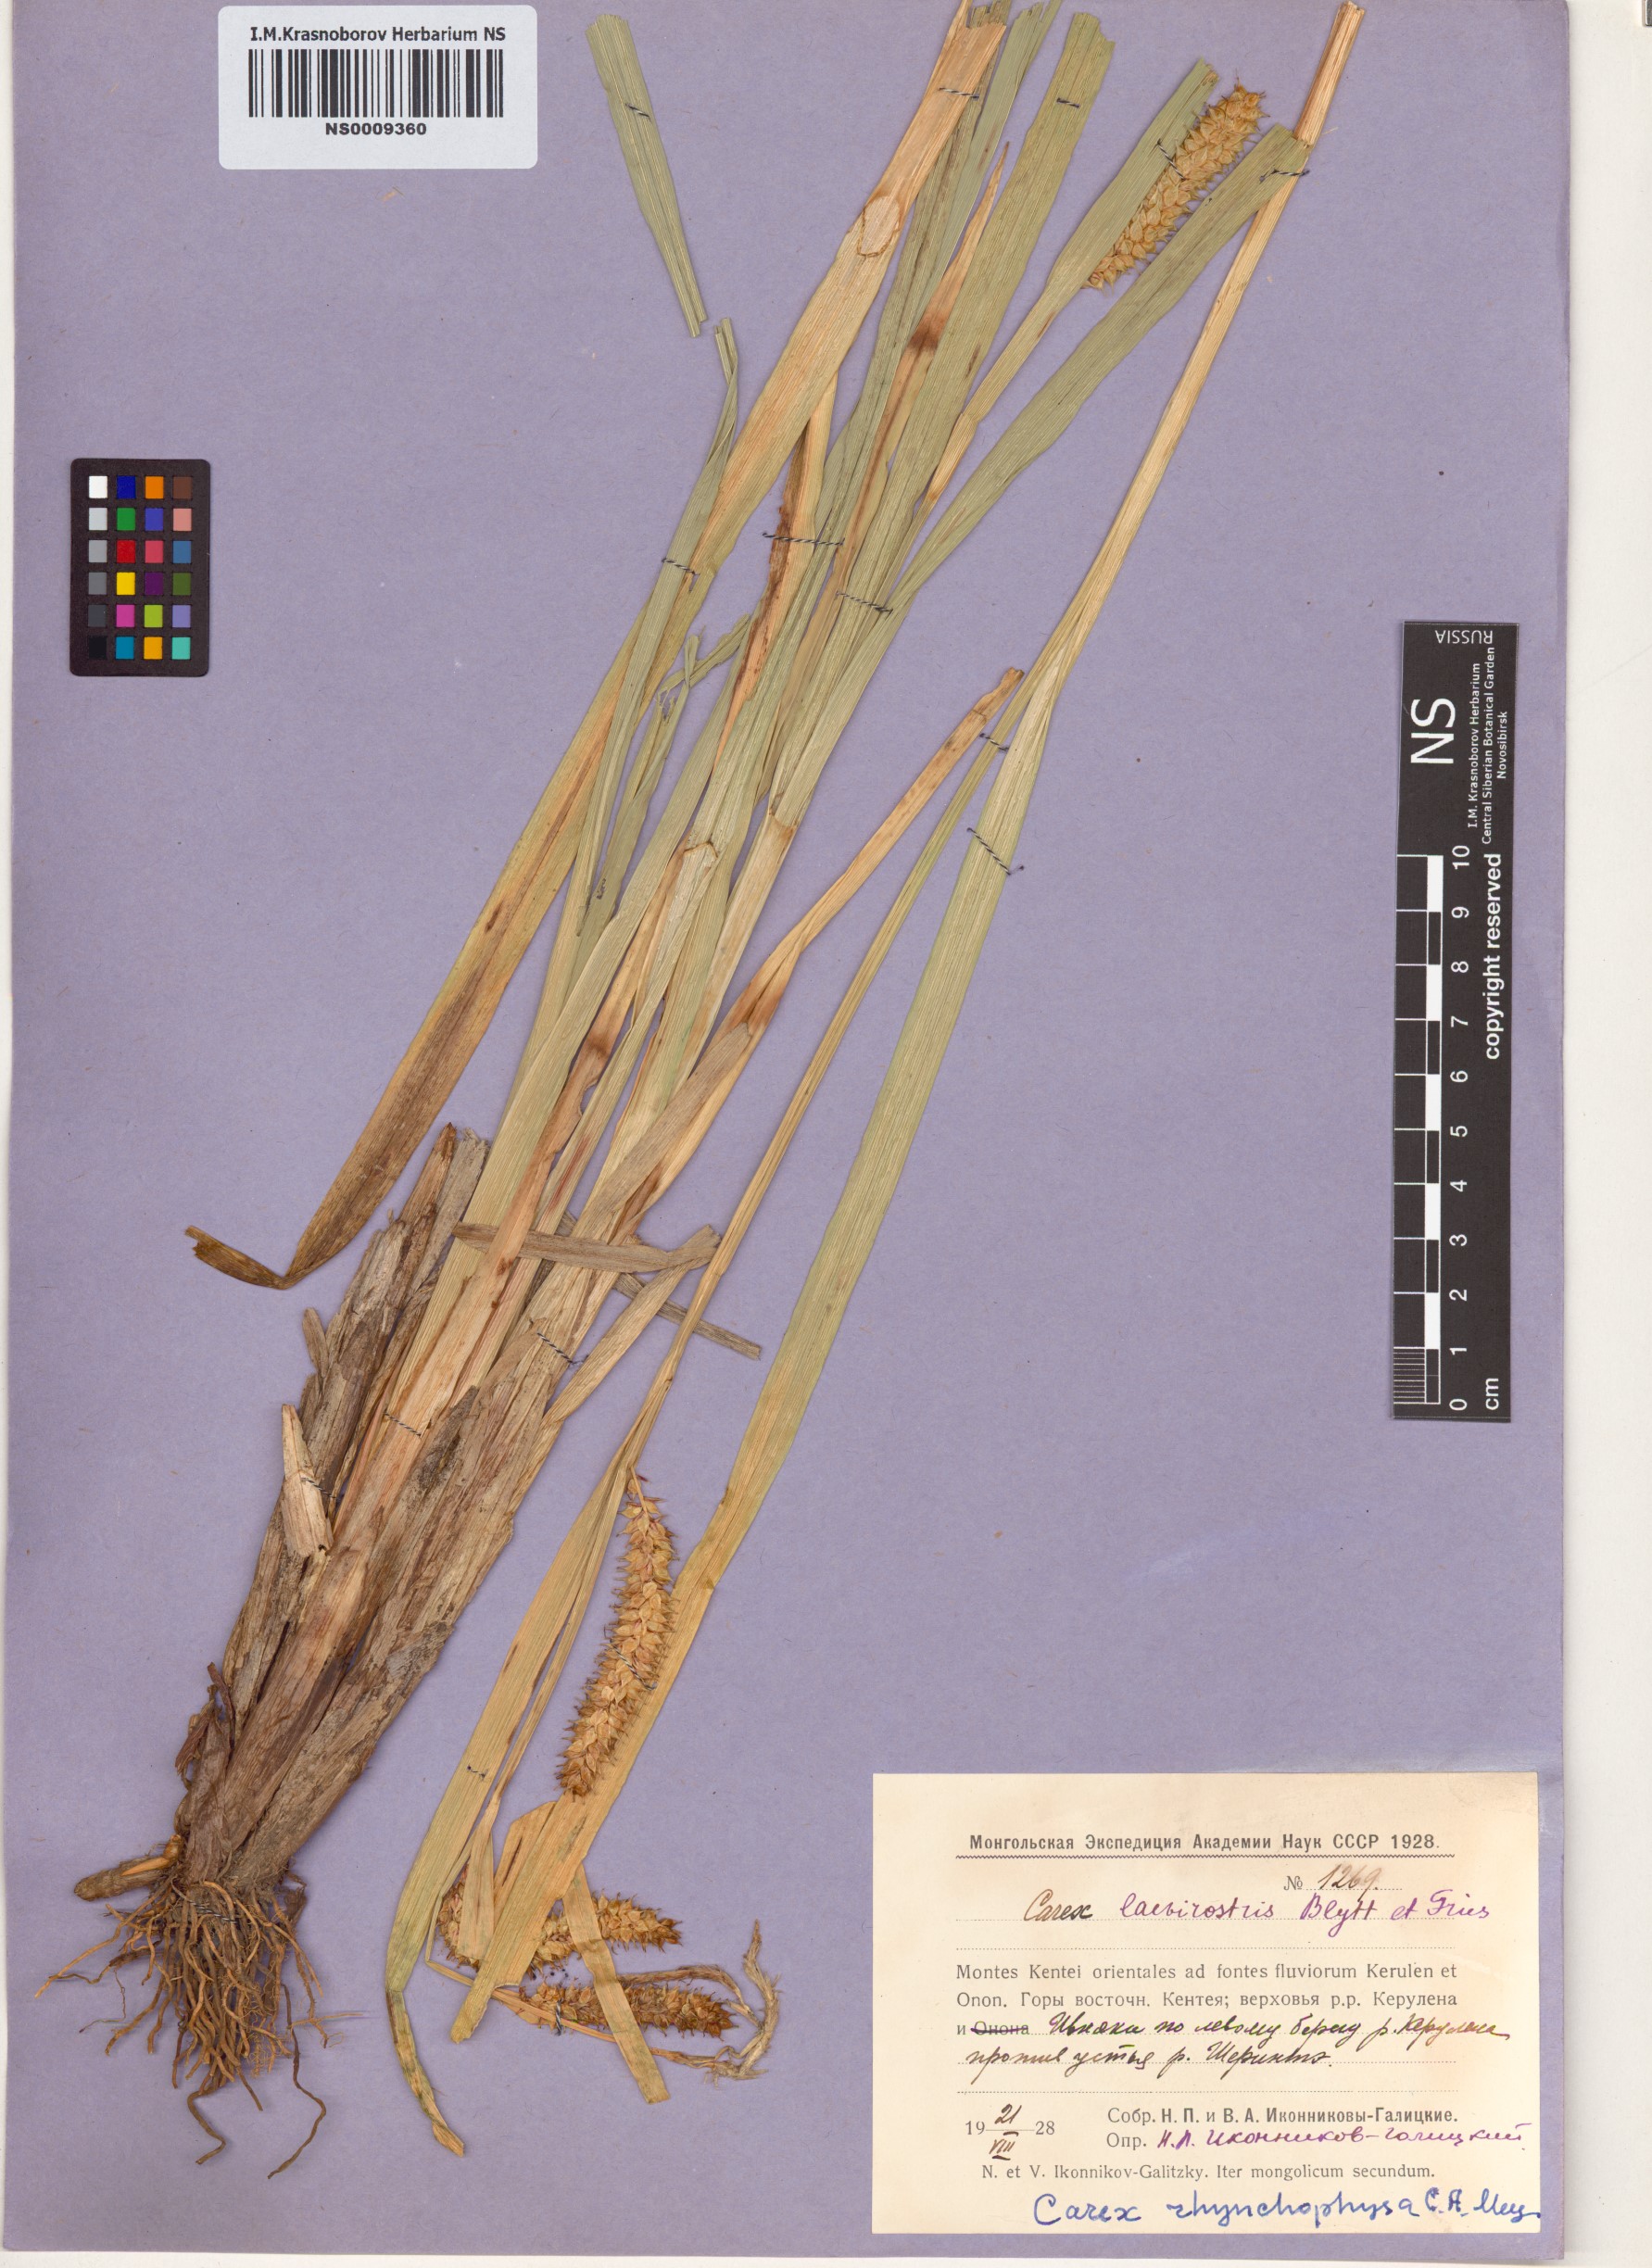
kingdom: Plantae
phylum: Tracheophyta
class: Liliopsida
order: Poales
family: Cyperaceae
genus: Carex
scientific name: Carex utriculata
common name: Beaked sedge
